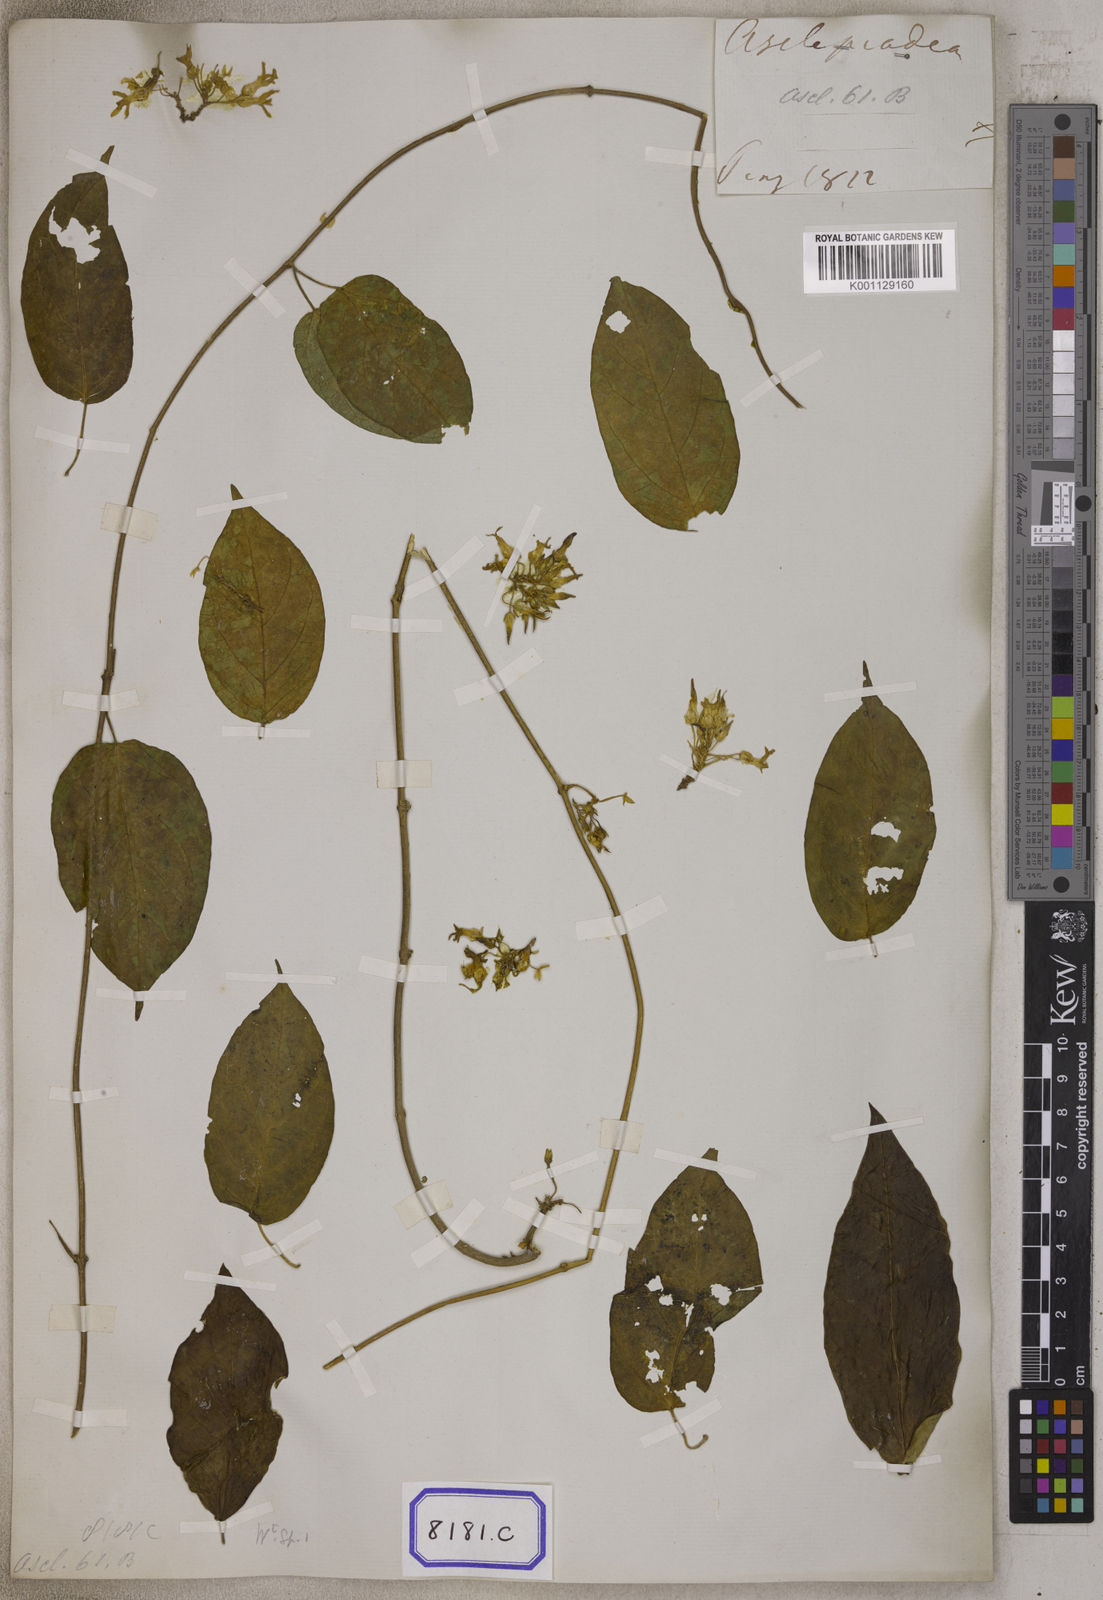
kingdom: Plantae
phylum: Tracheophyta
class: Magnoliopsida
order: Gentianales
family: Apocynaceae
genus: Telosma
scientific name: Telosma pallida
